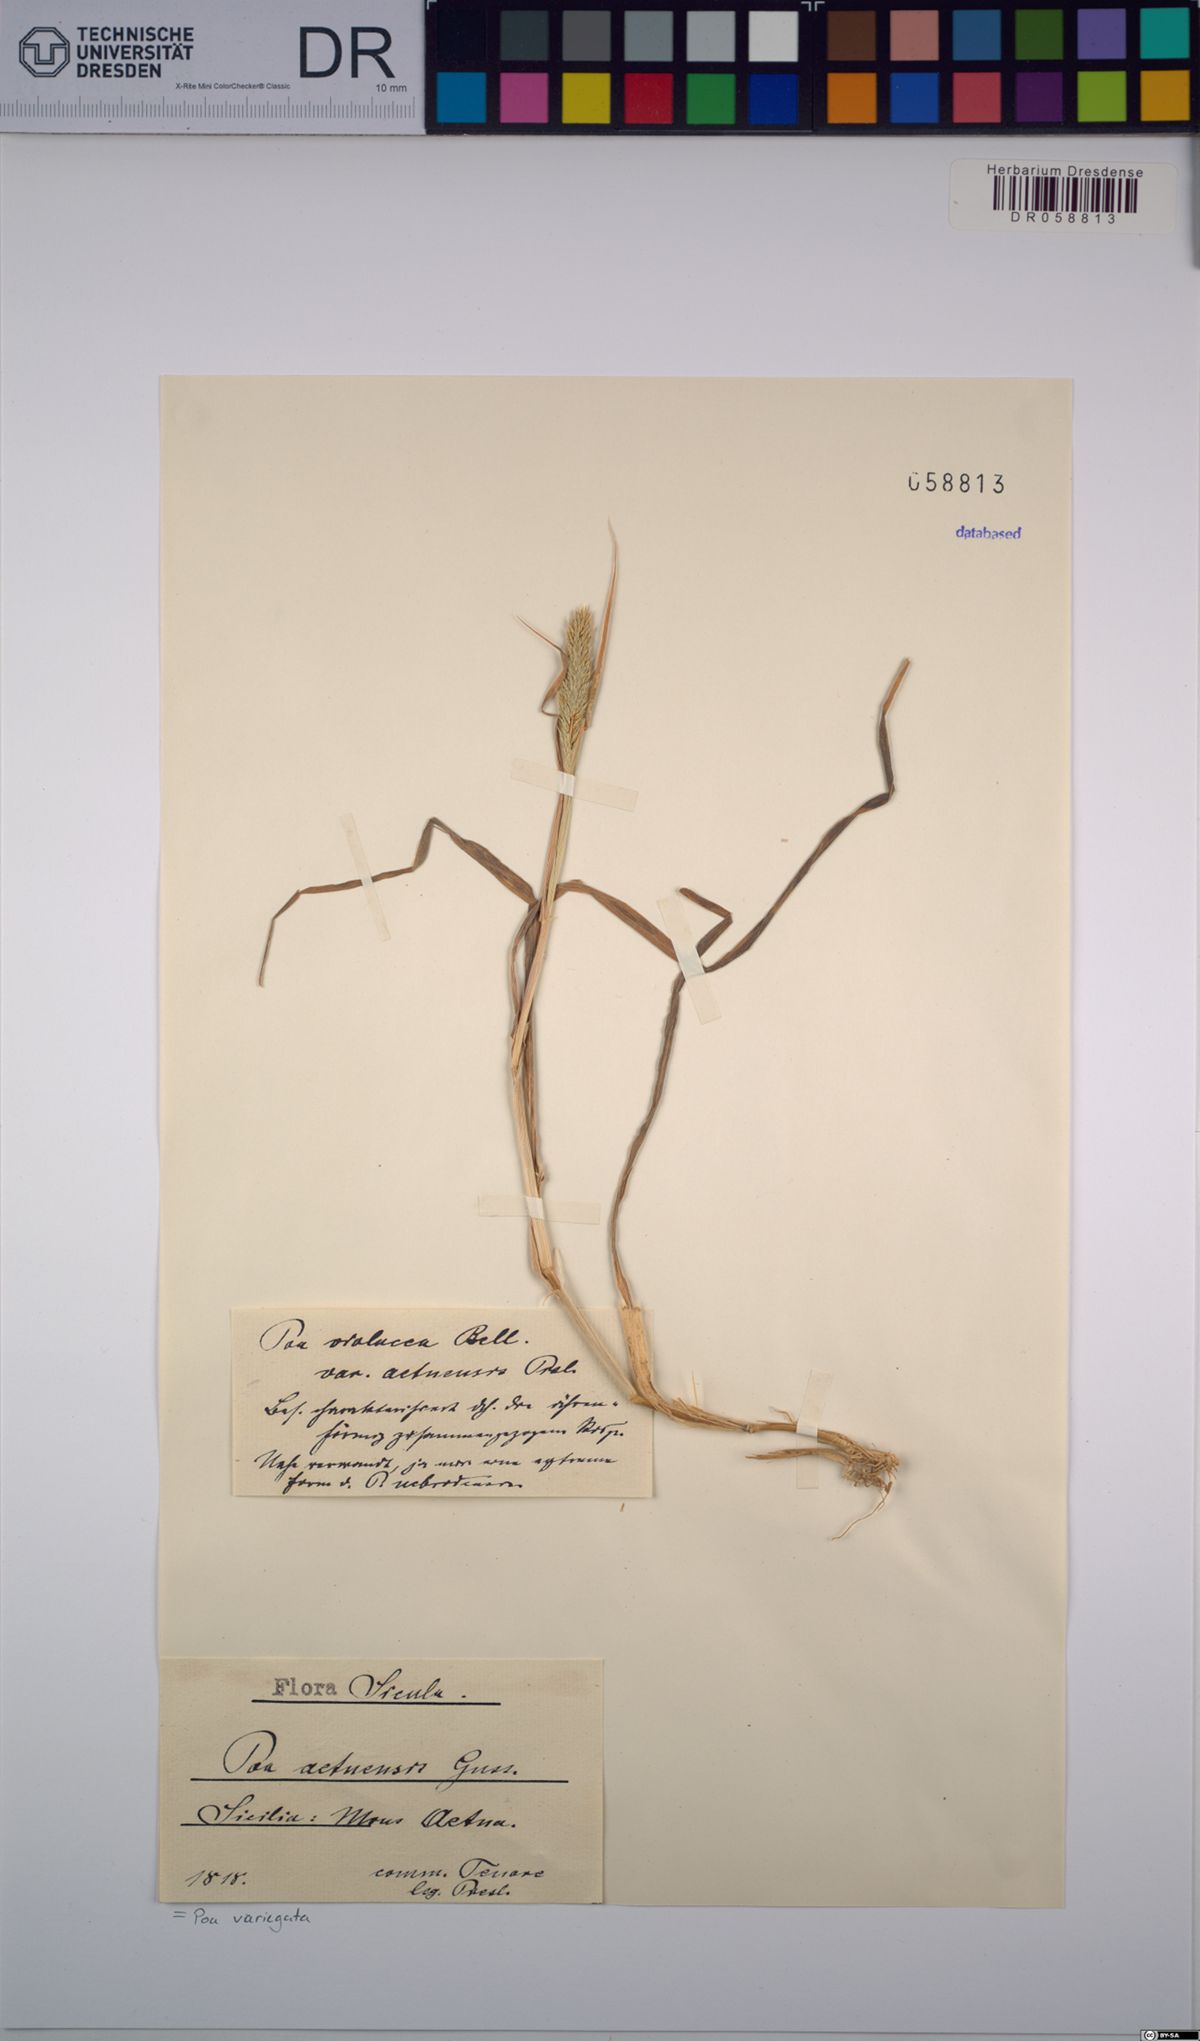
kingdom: Plantae
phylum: Tracheophyta
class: Liliopsida
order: Poales
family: Poaceae
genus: Bellardiochloa
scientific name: Bellardiochloa variegata
